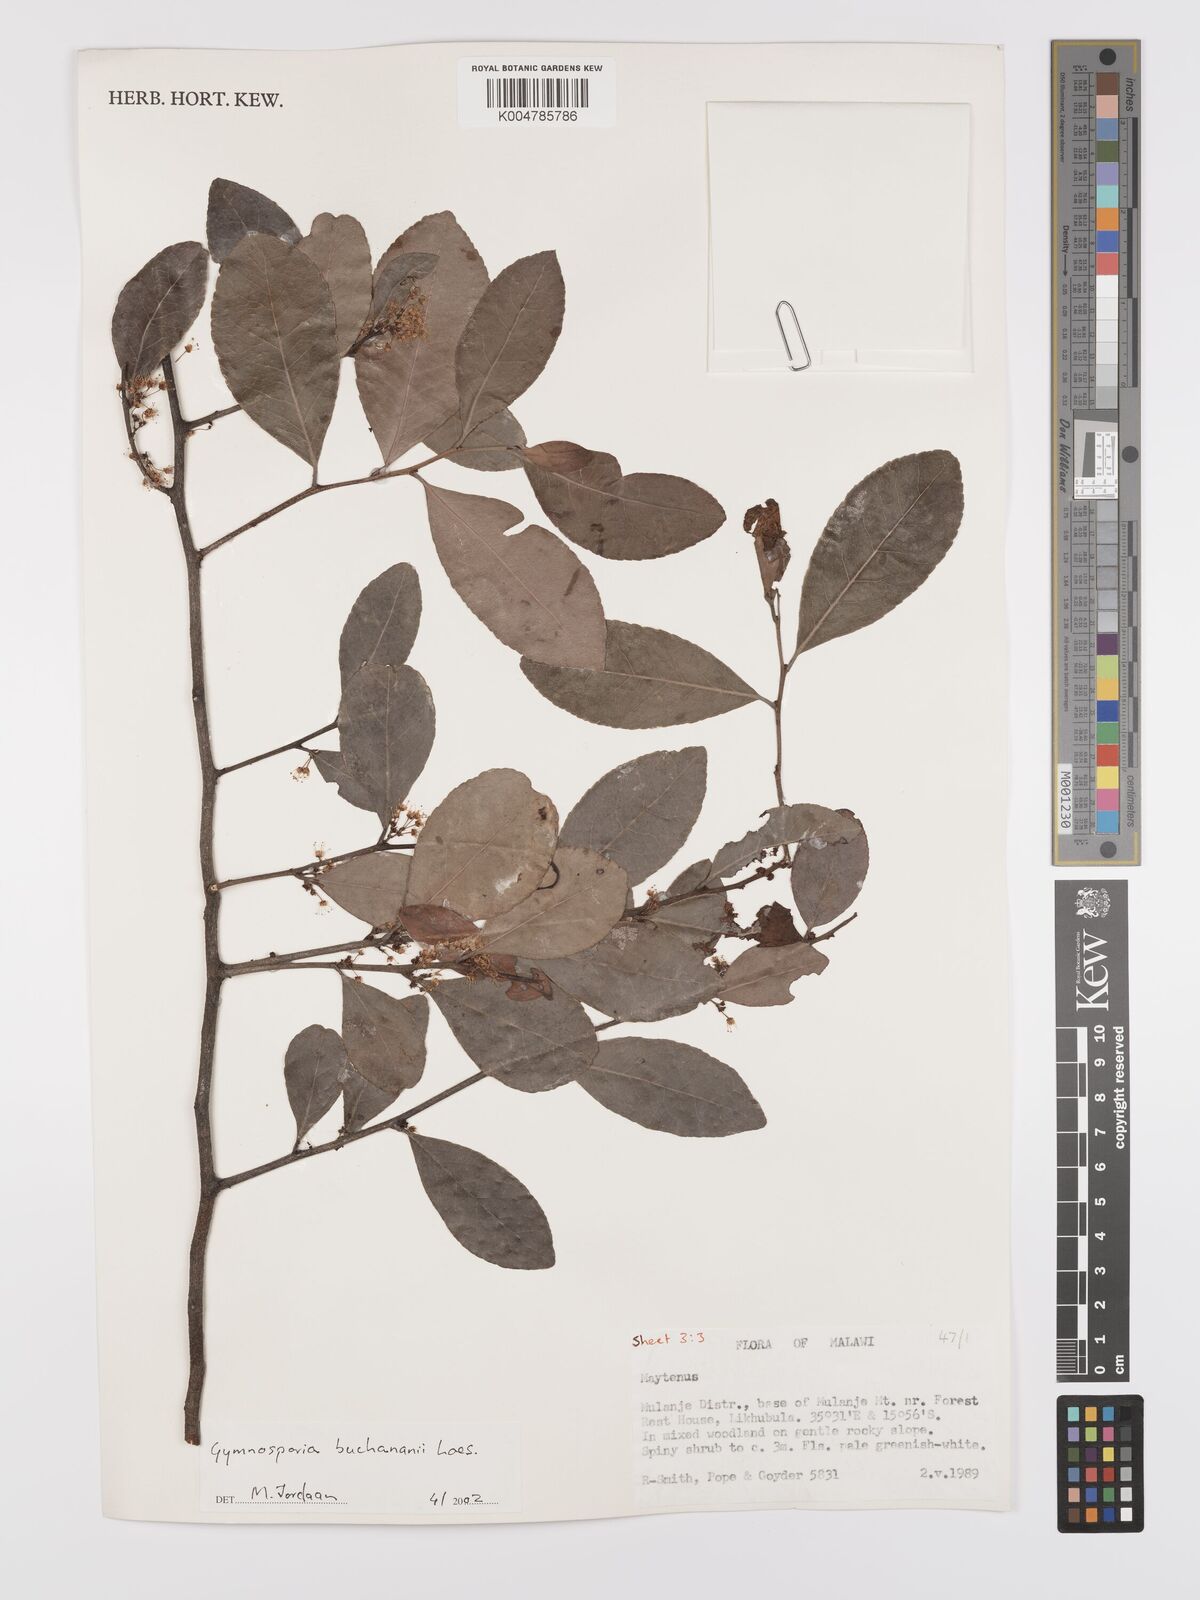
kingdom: Plantae
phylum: Tracheophyta
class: Magnoliopsida
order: Celastrales
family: Celastraceae
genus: Gymnosporia
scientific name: Gymnosporia buchananii
